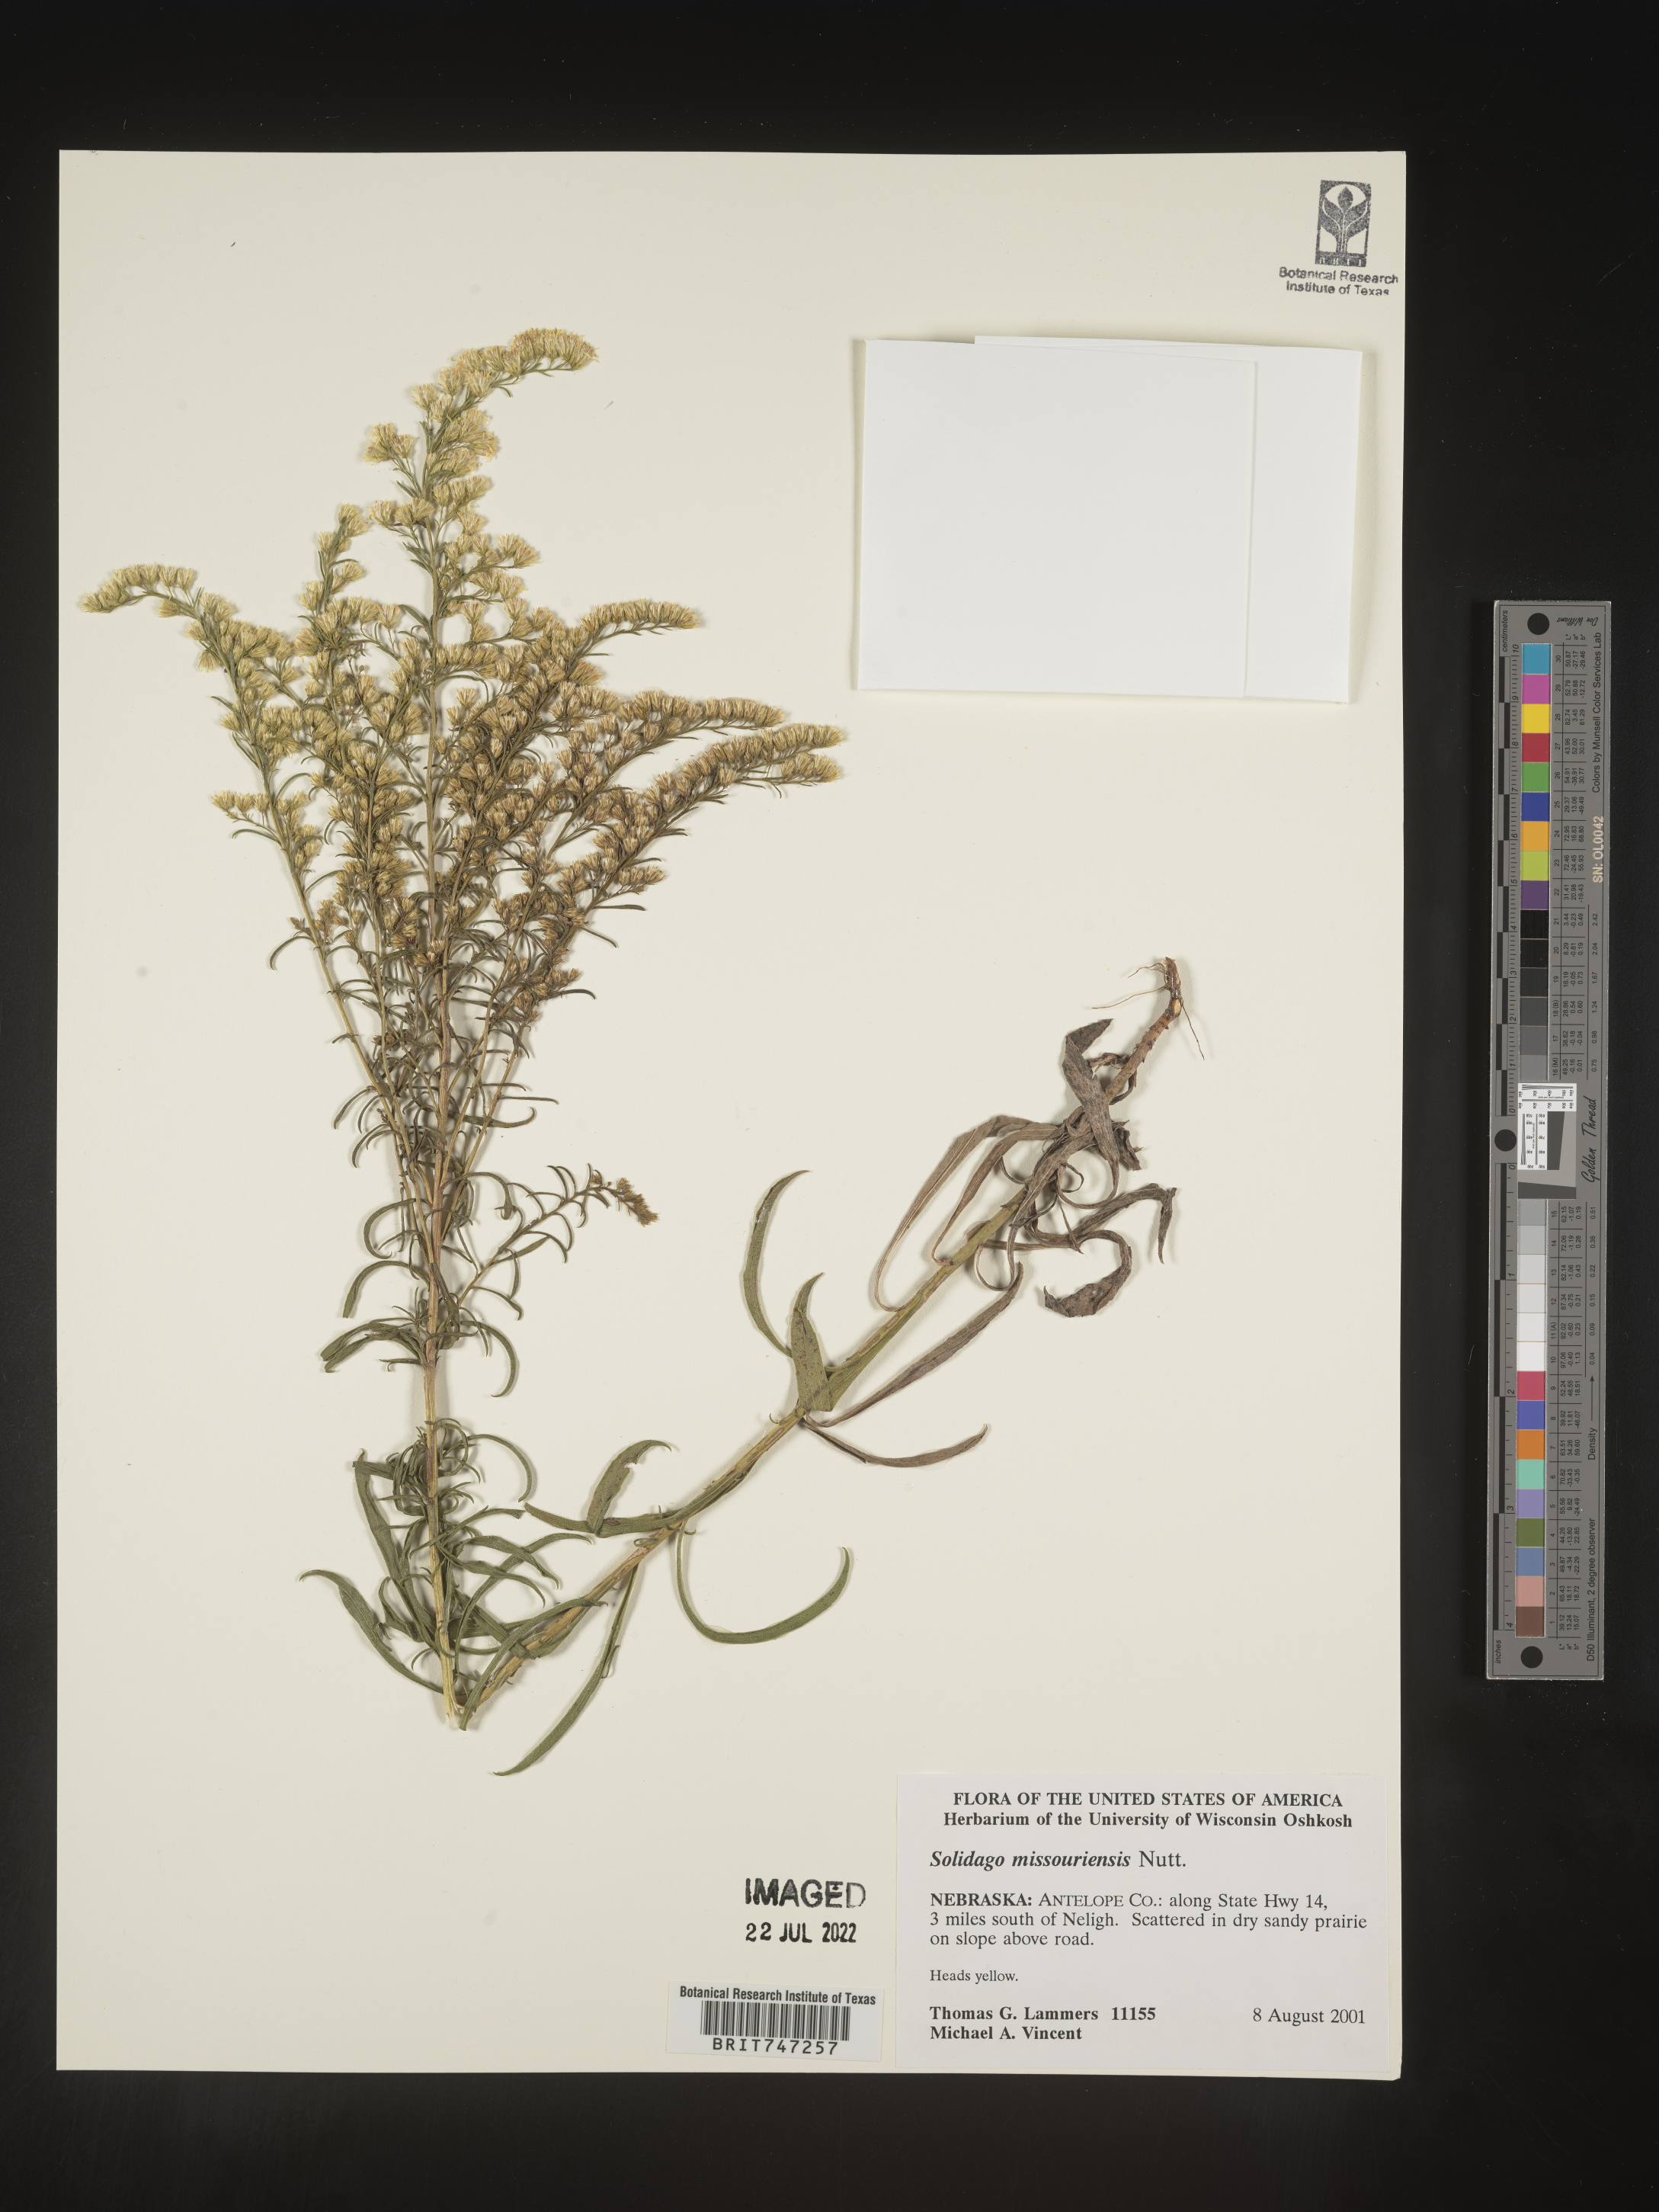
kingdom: Plantae
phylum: Tracheophyta
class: Magnoliopsida
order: Asterales
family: Asteraceae
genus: Solidago
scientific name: Solidago missouriensis
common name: Prairie goldenrod
